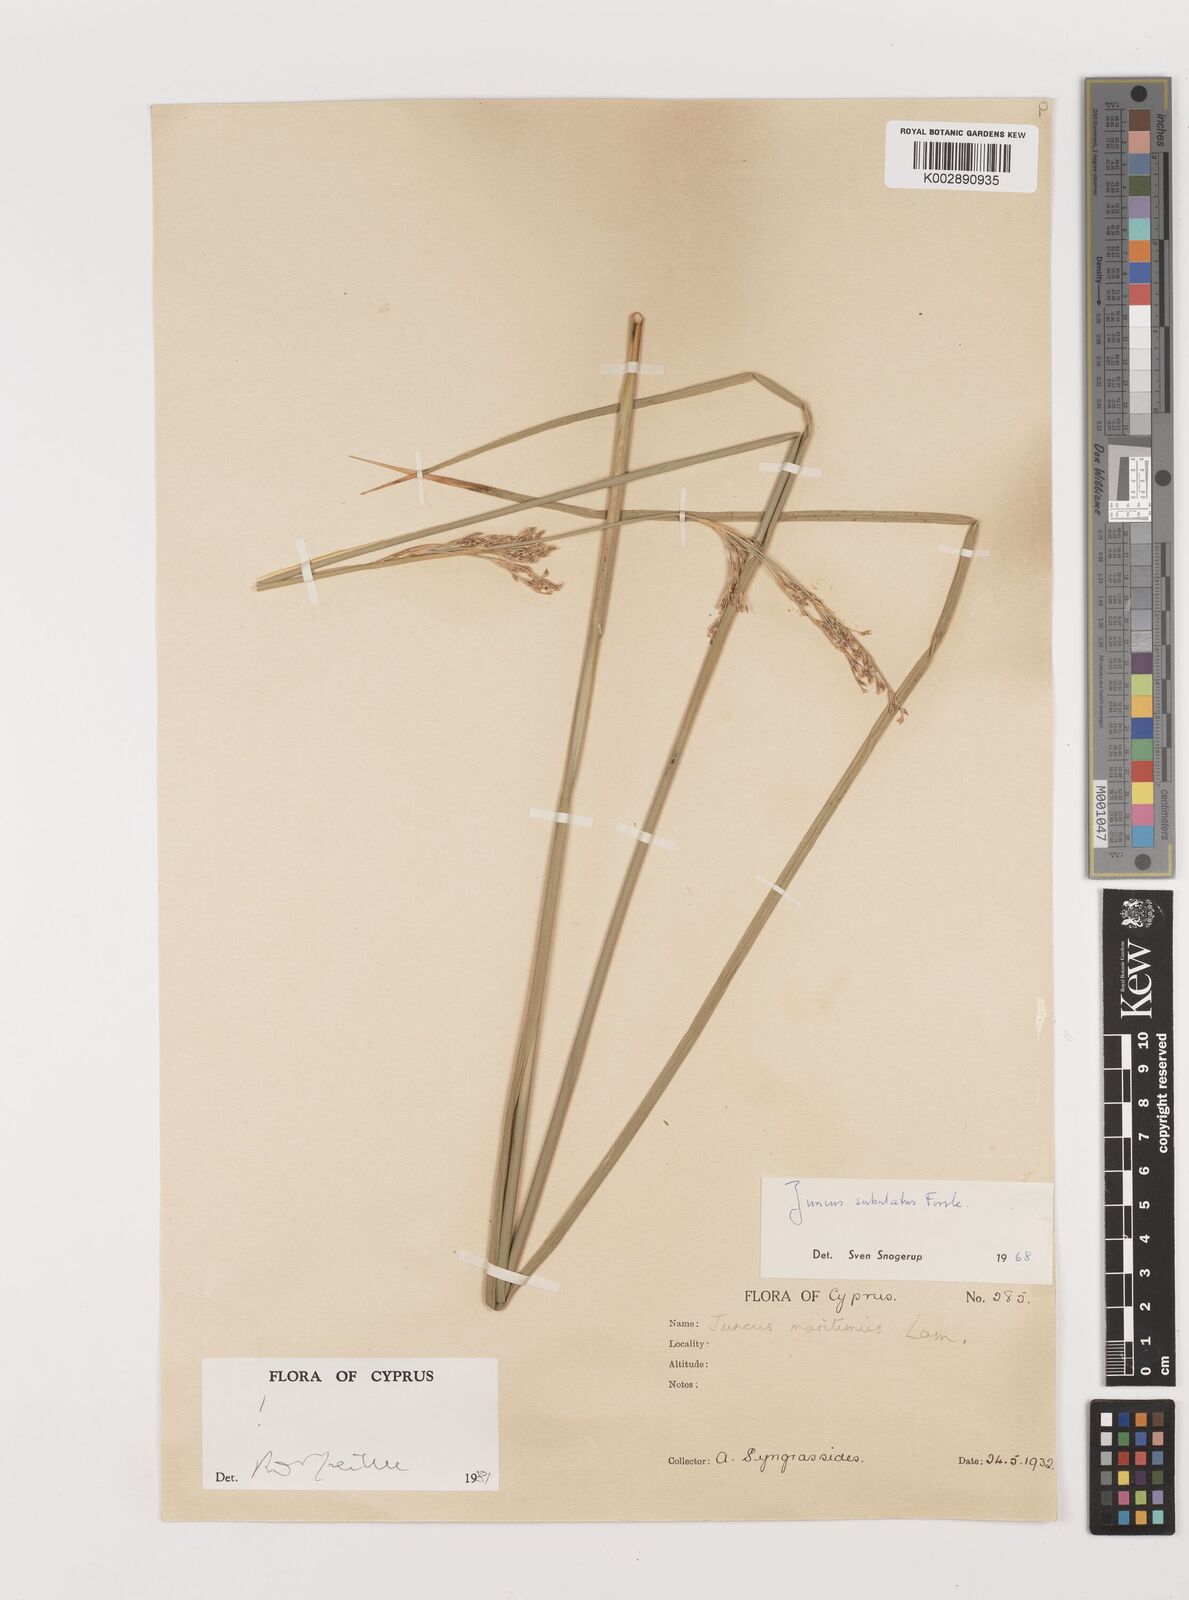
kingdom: Plantae
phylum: Tracheophyta
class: Liliopsida
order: Poales
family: Juncaceae
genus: Juncus
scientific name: Juncus subulatus
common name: Somerset rush
